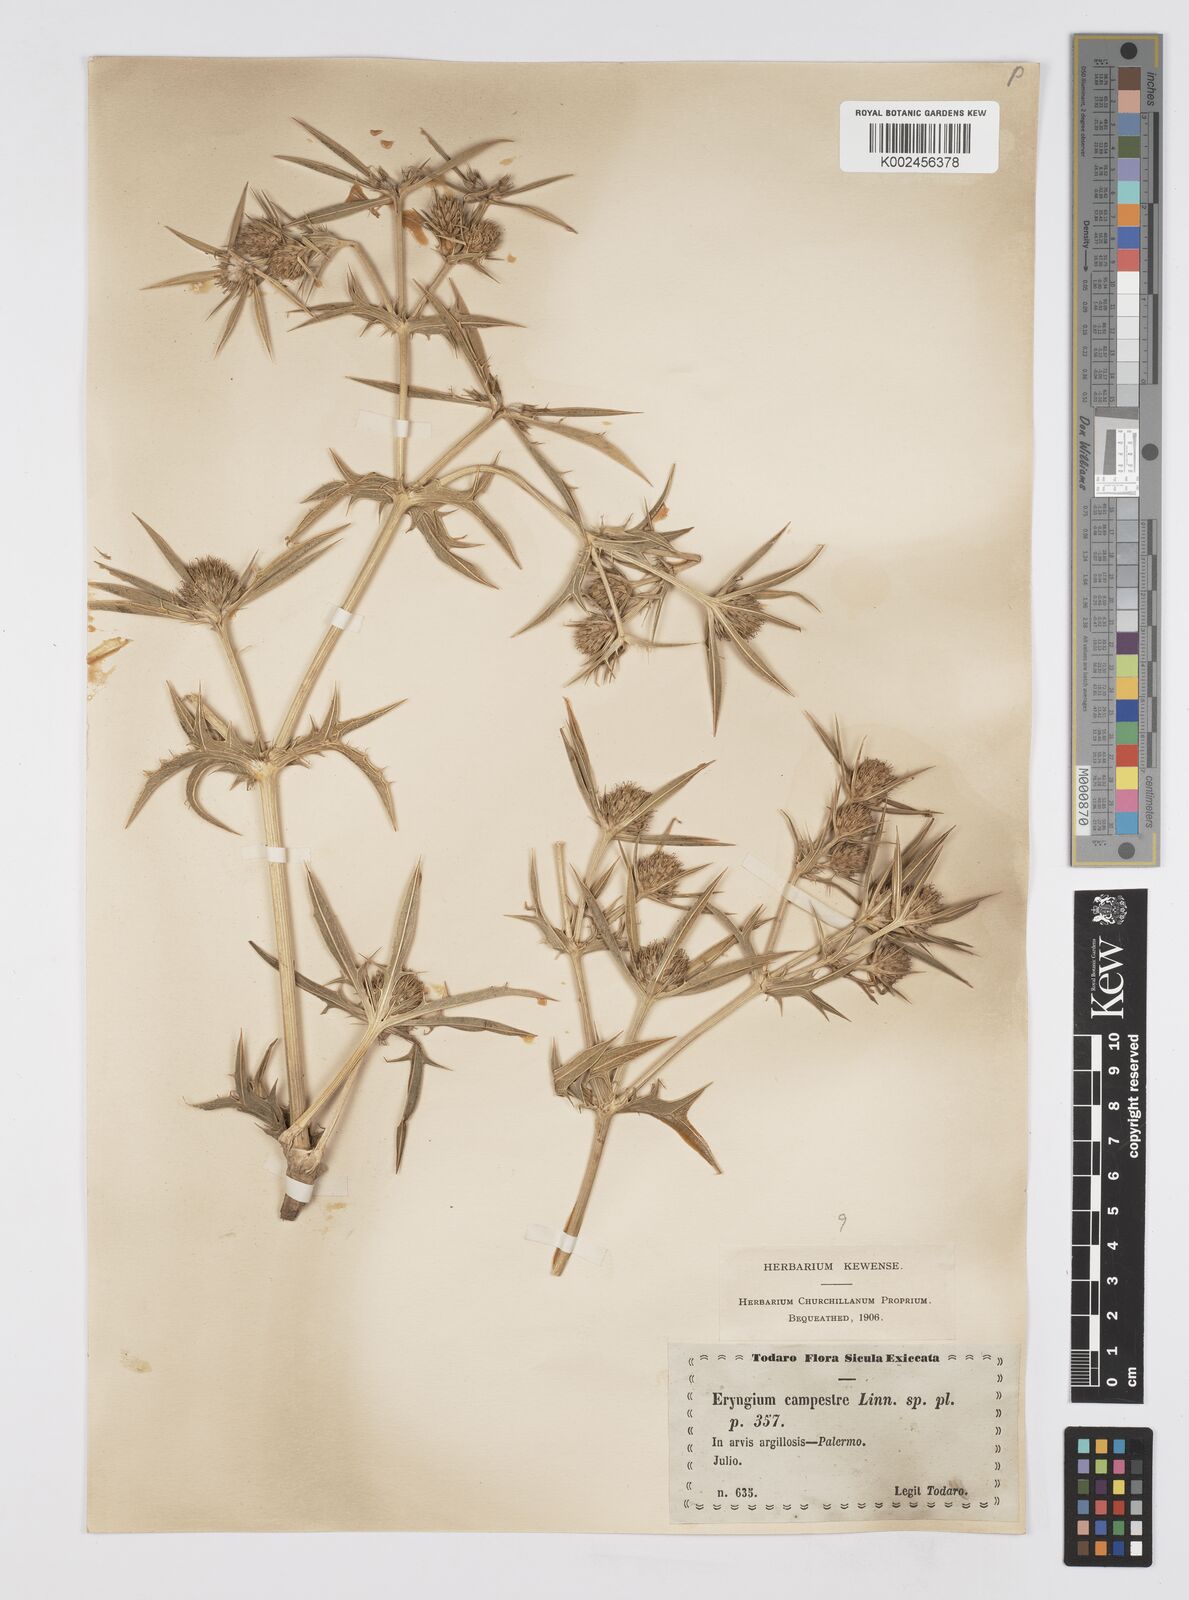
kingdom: Plantae
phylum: Tracheophyta
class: Magnoliopsida
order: Apiales
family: Apiaceae
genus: Eryngium
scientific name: Eryngium campestre
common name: Field eryngo
